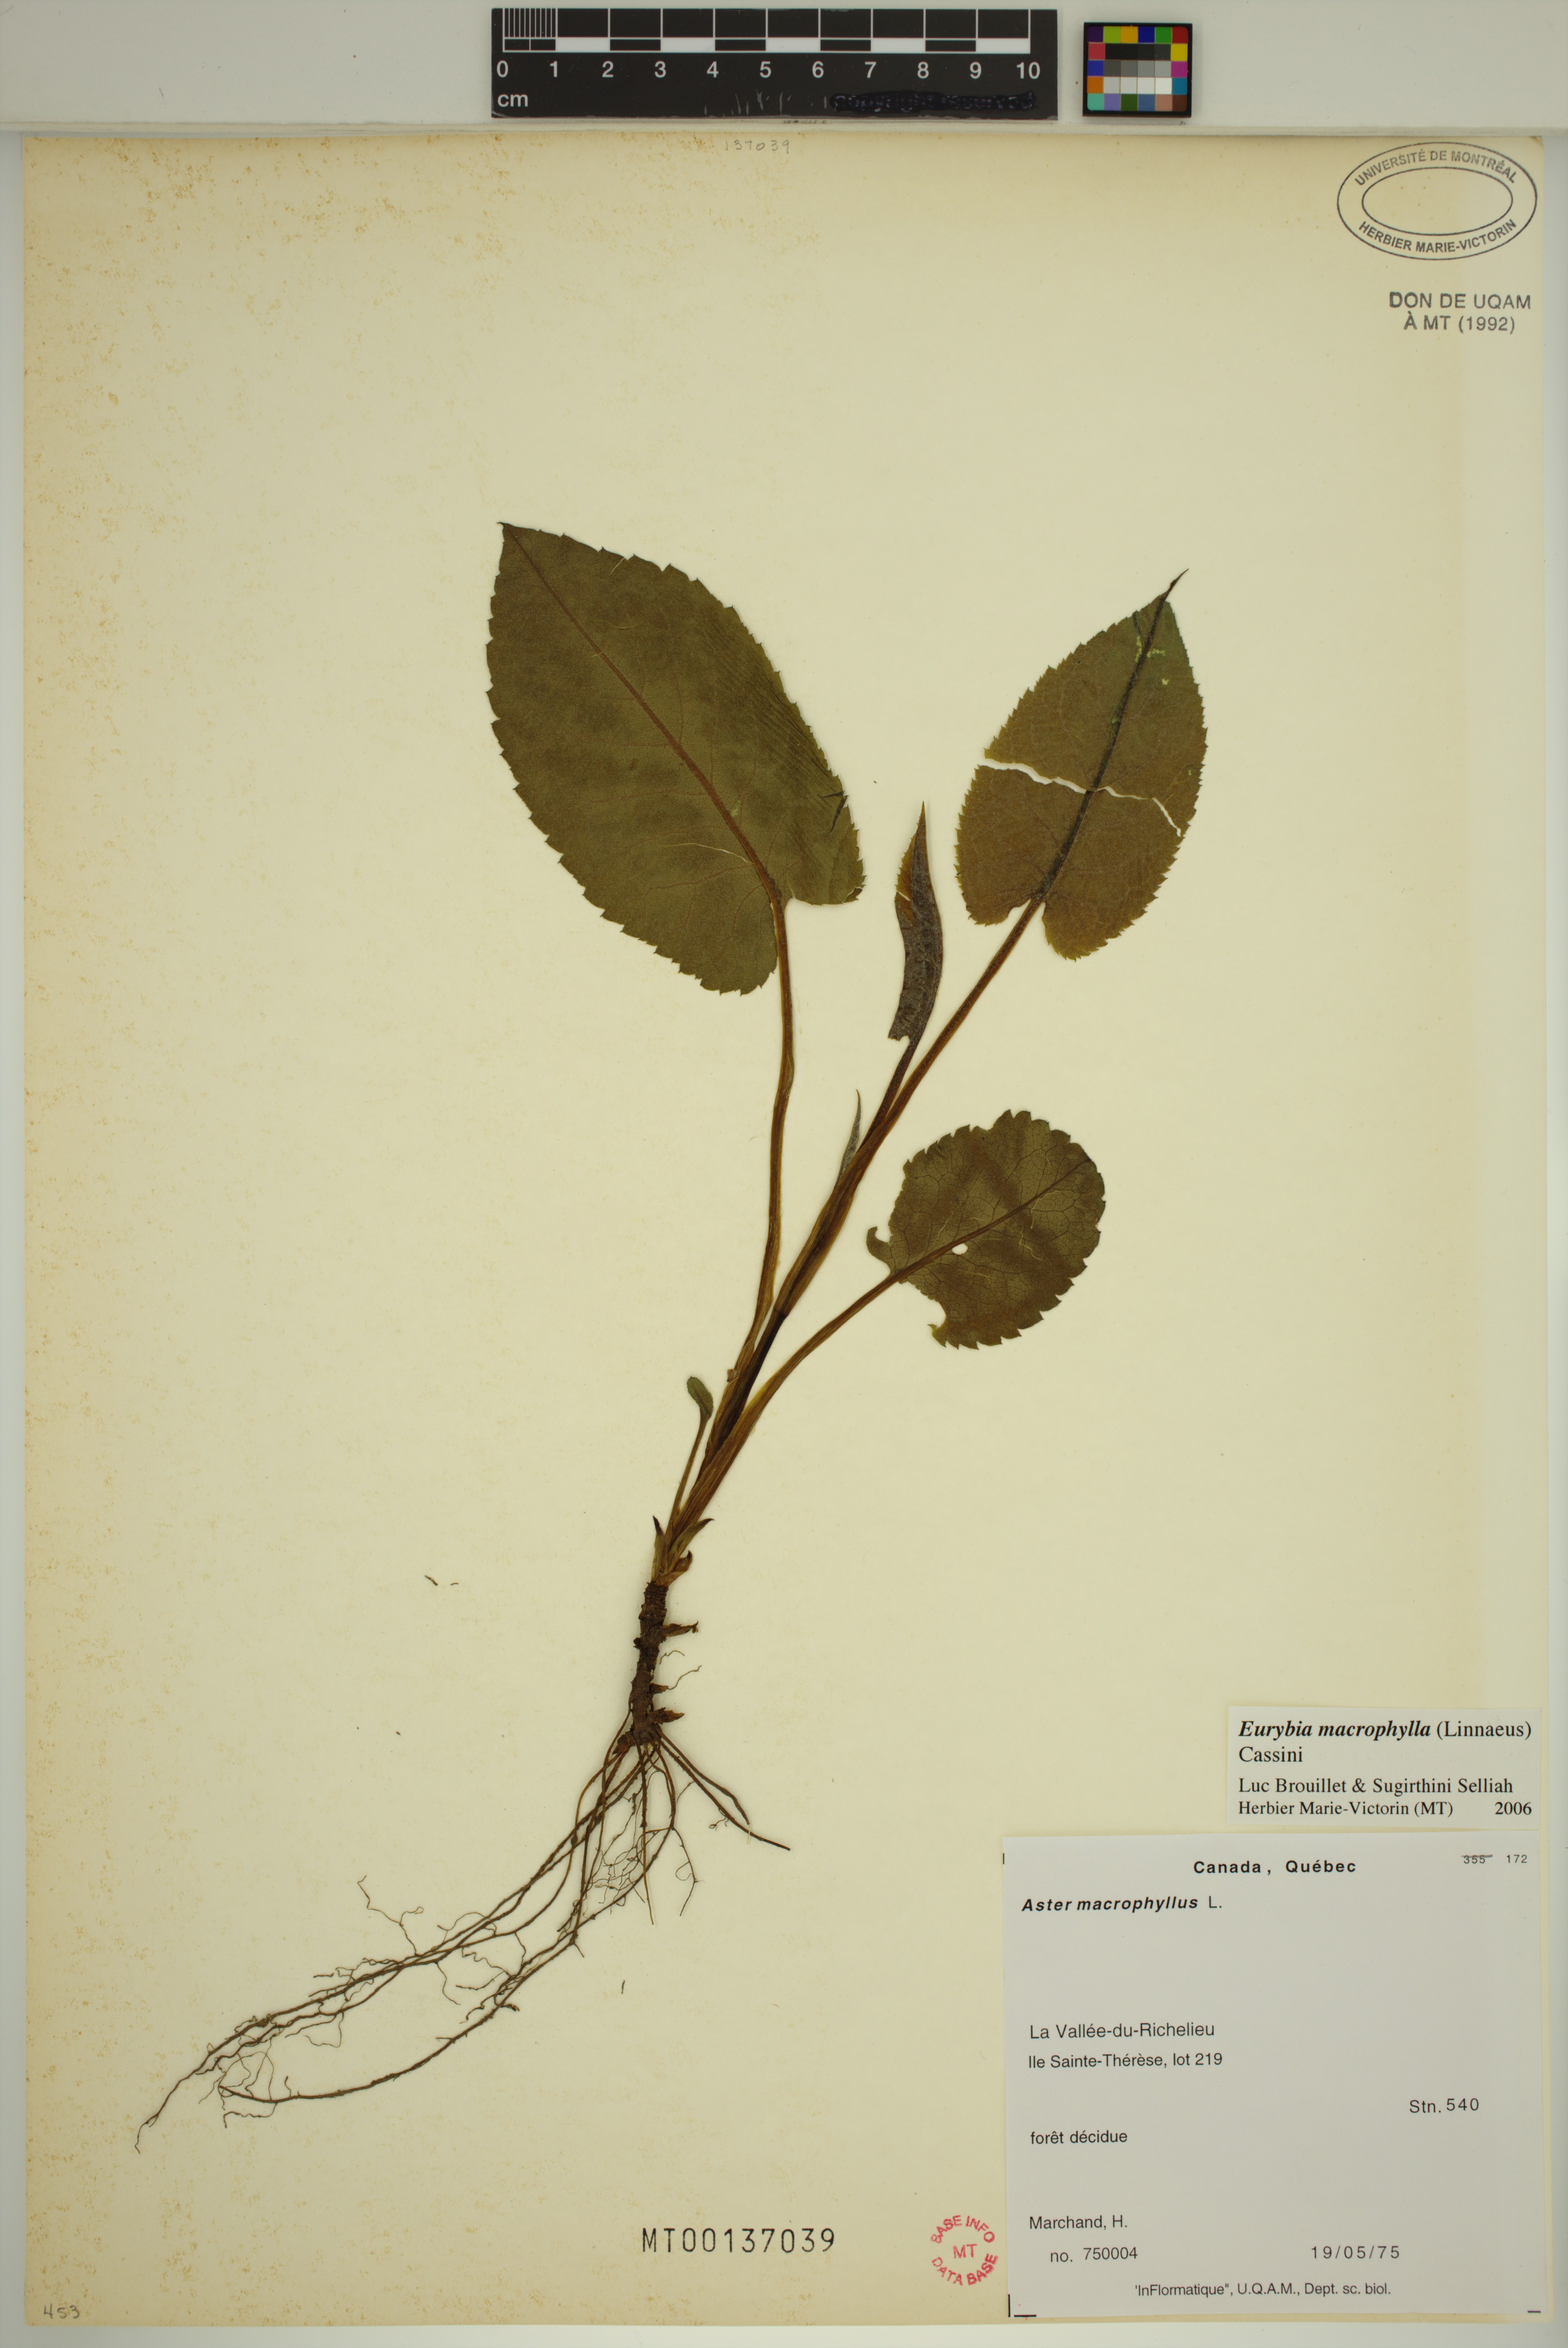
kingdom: Plantae
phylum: Tracheophyta
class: Magnoliopsida
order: Asterales
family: Asteraceae
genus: Eurybia
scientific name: Eurybia macrophylla
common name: Big-leaved aster
